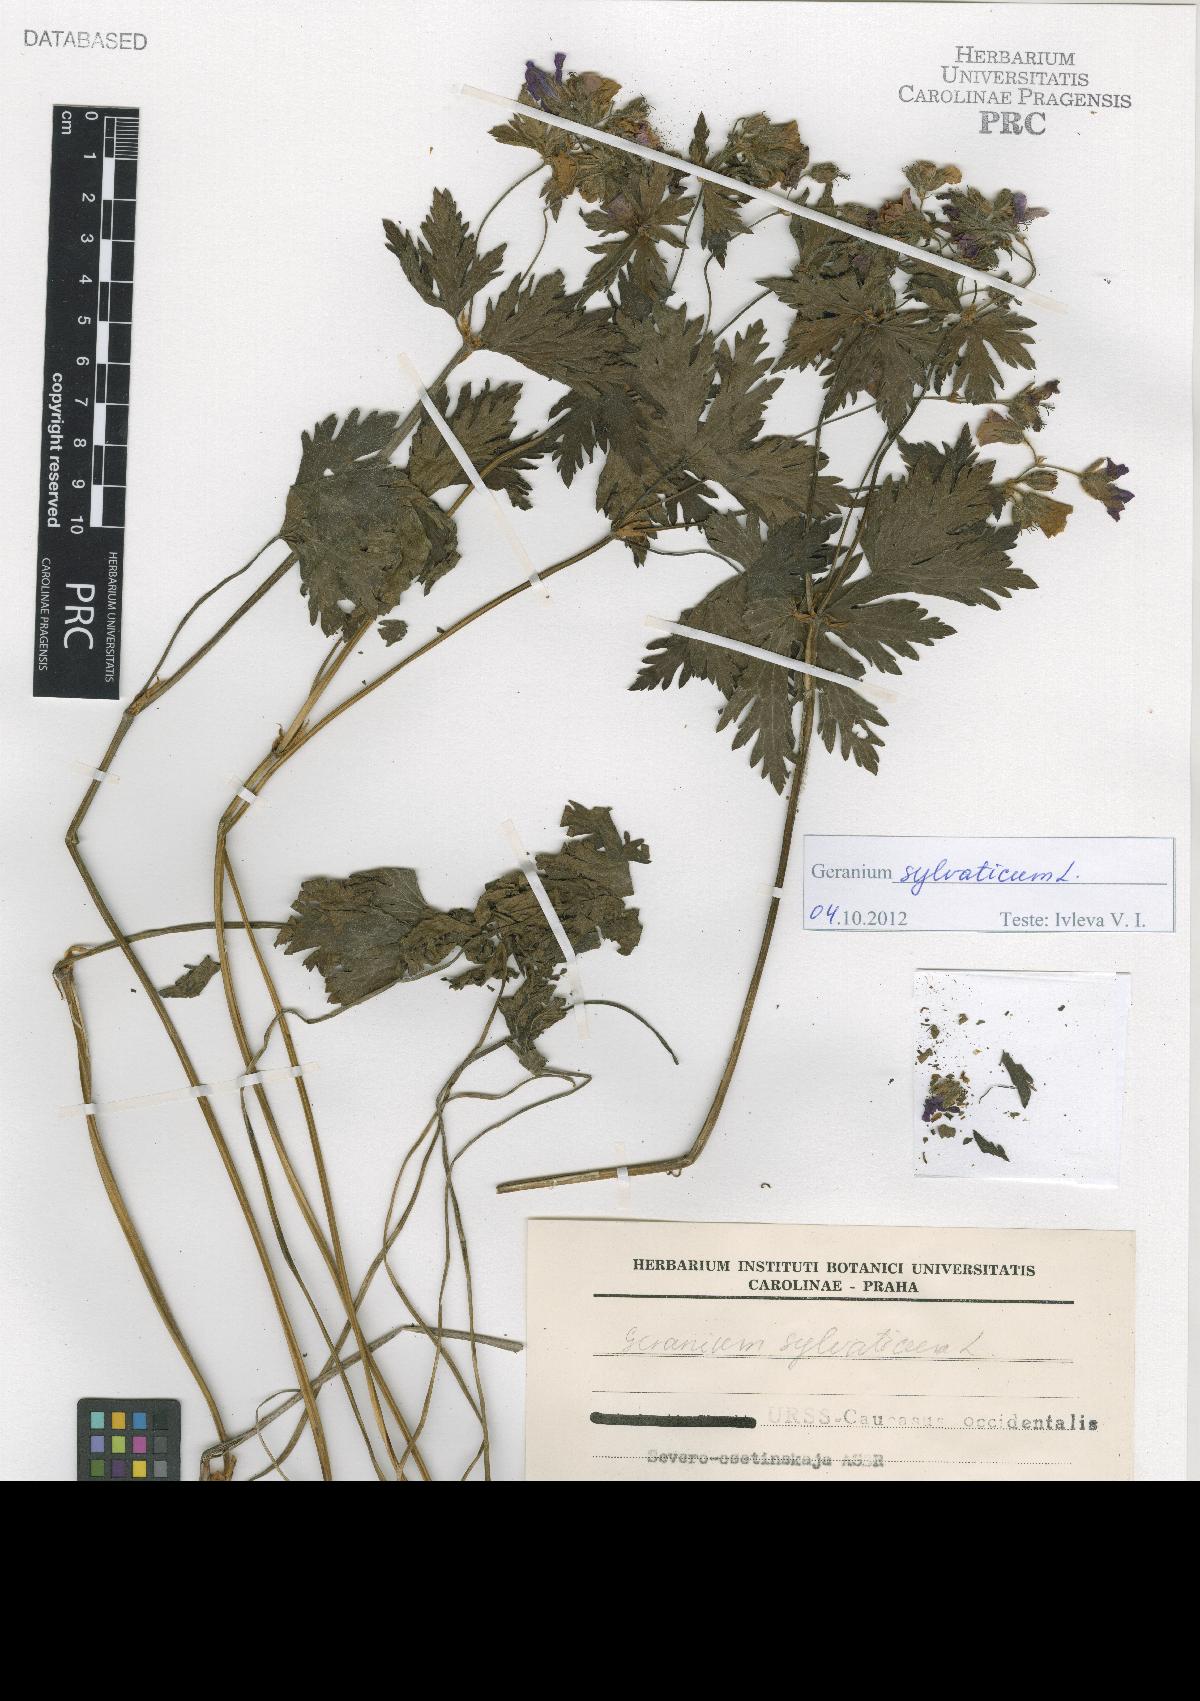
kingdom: Plantae
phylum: Tracheophyta
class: Magnoliopsida
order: Geraniales
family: Geraniaceae
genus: Geranium
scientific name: Geranium sylvaticum
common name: Wood crane's-bill
